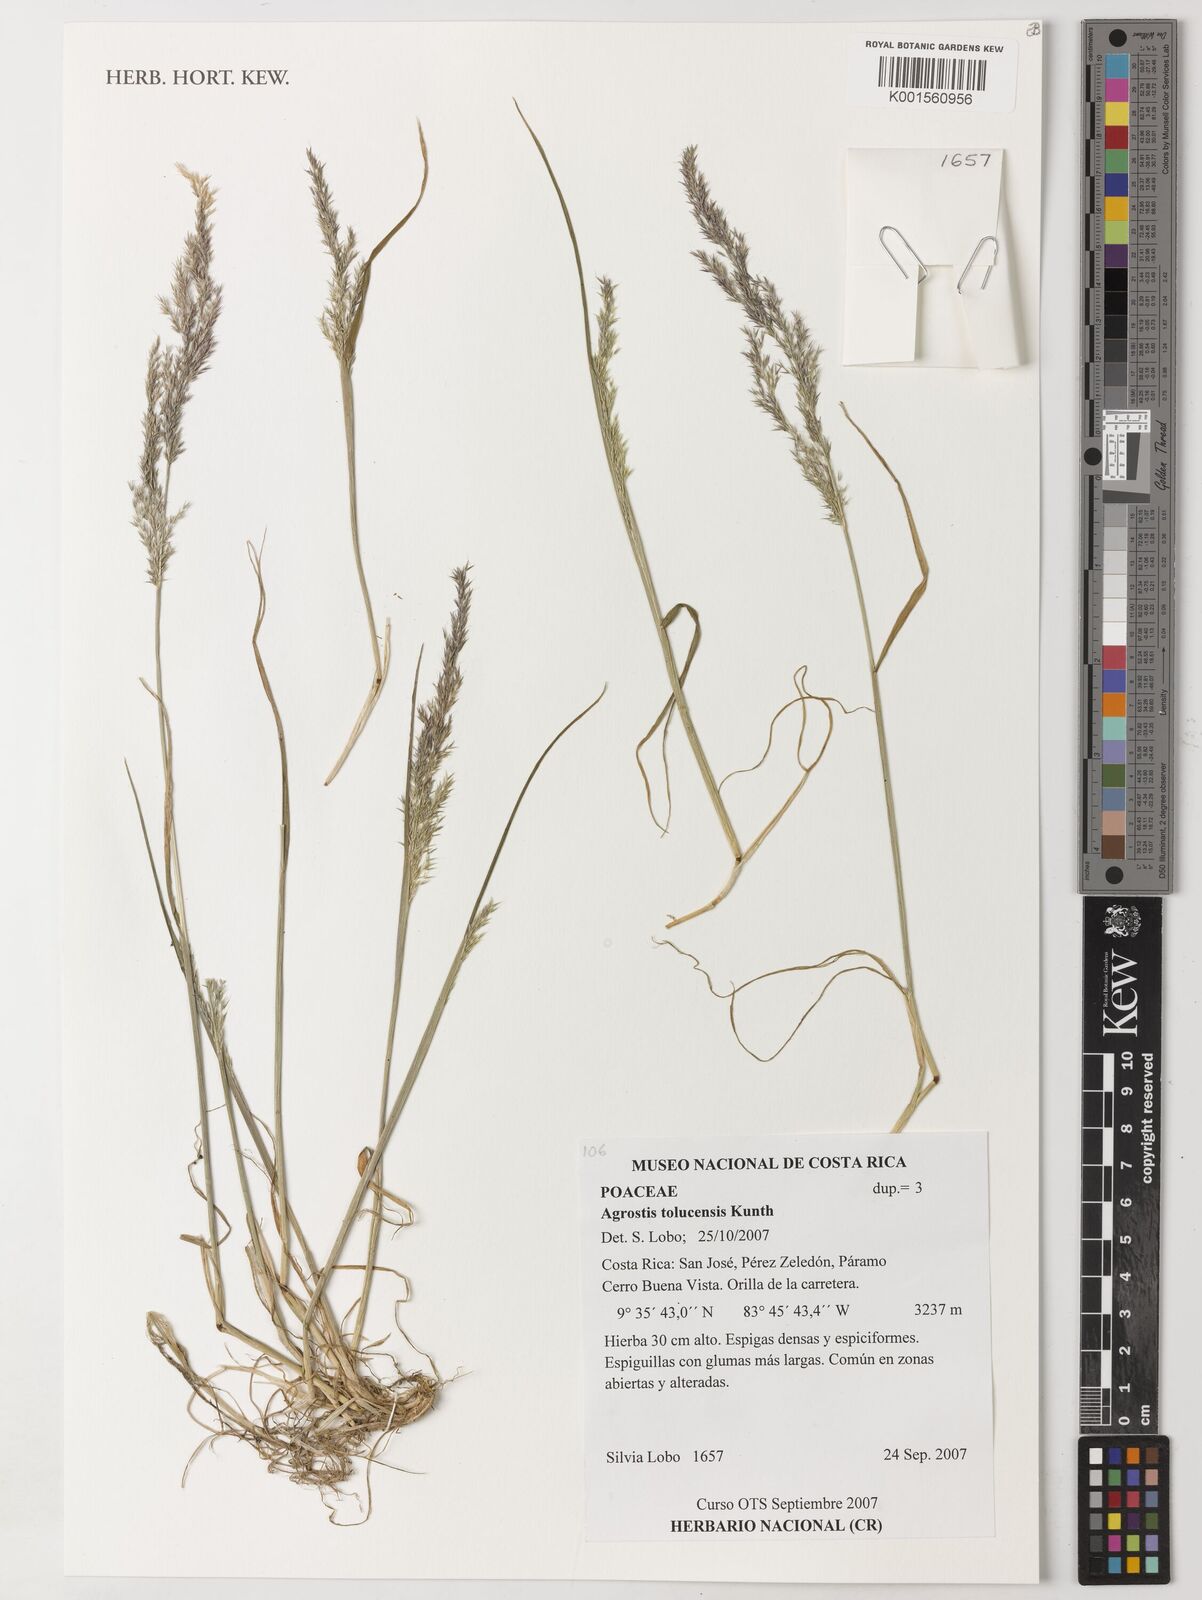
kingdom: Plantae
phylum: Tracheophyta
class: Liliopsida
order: Poales
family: Poaceae
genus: Agrostis
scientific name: Agrostis tolucensis
